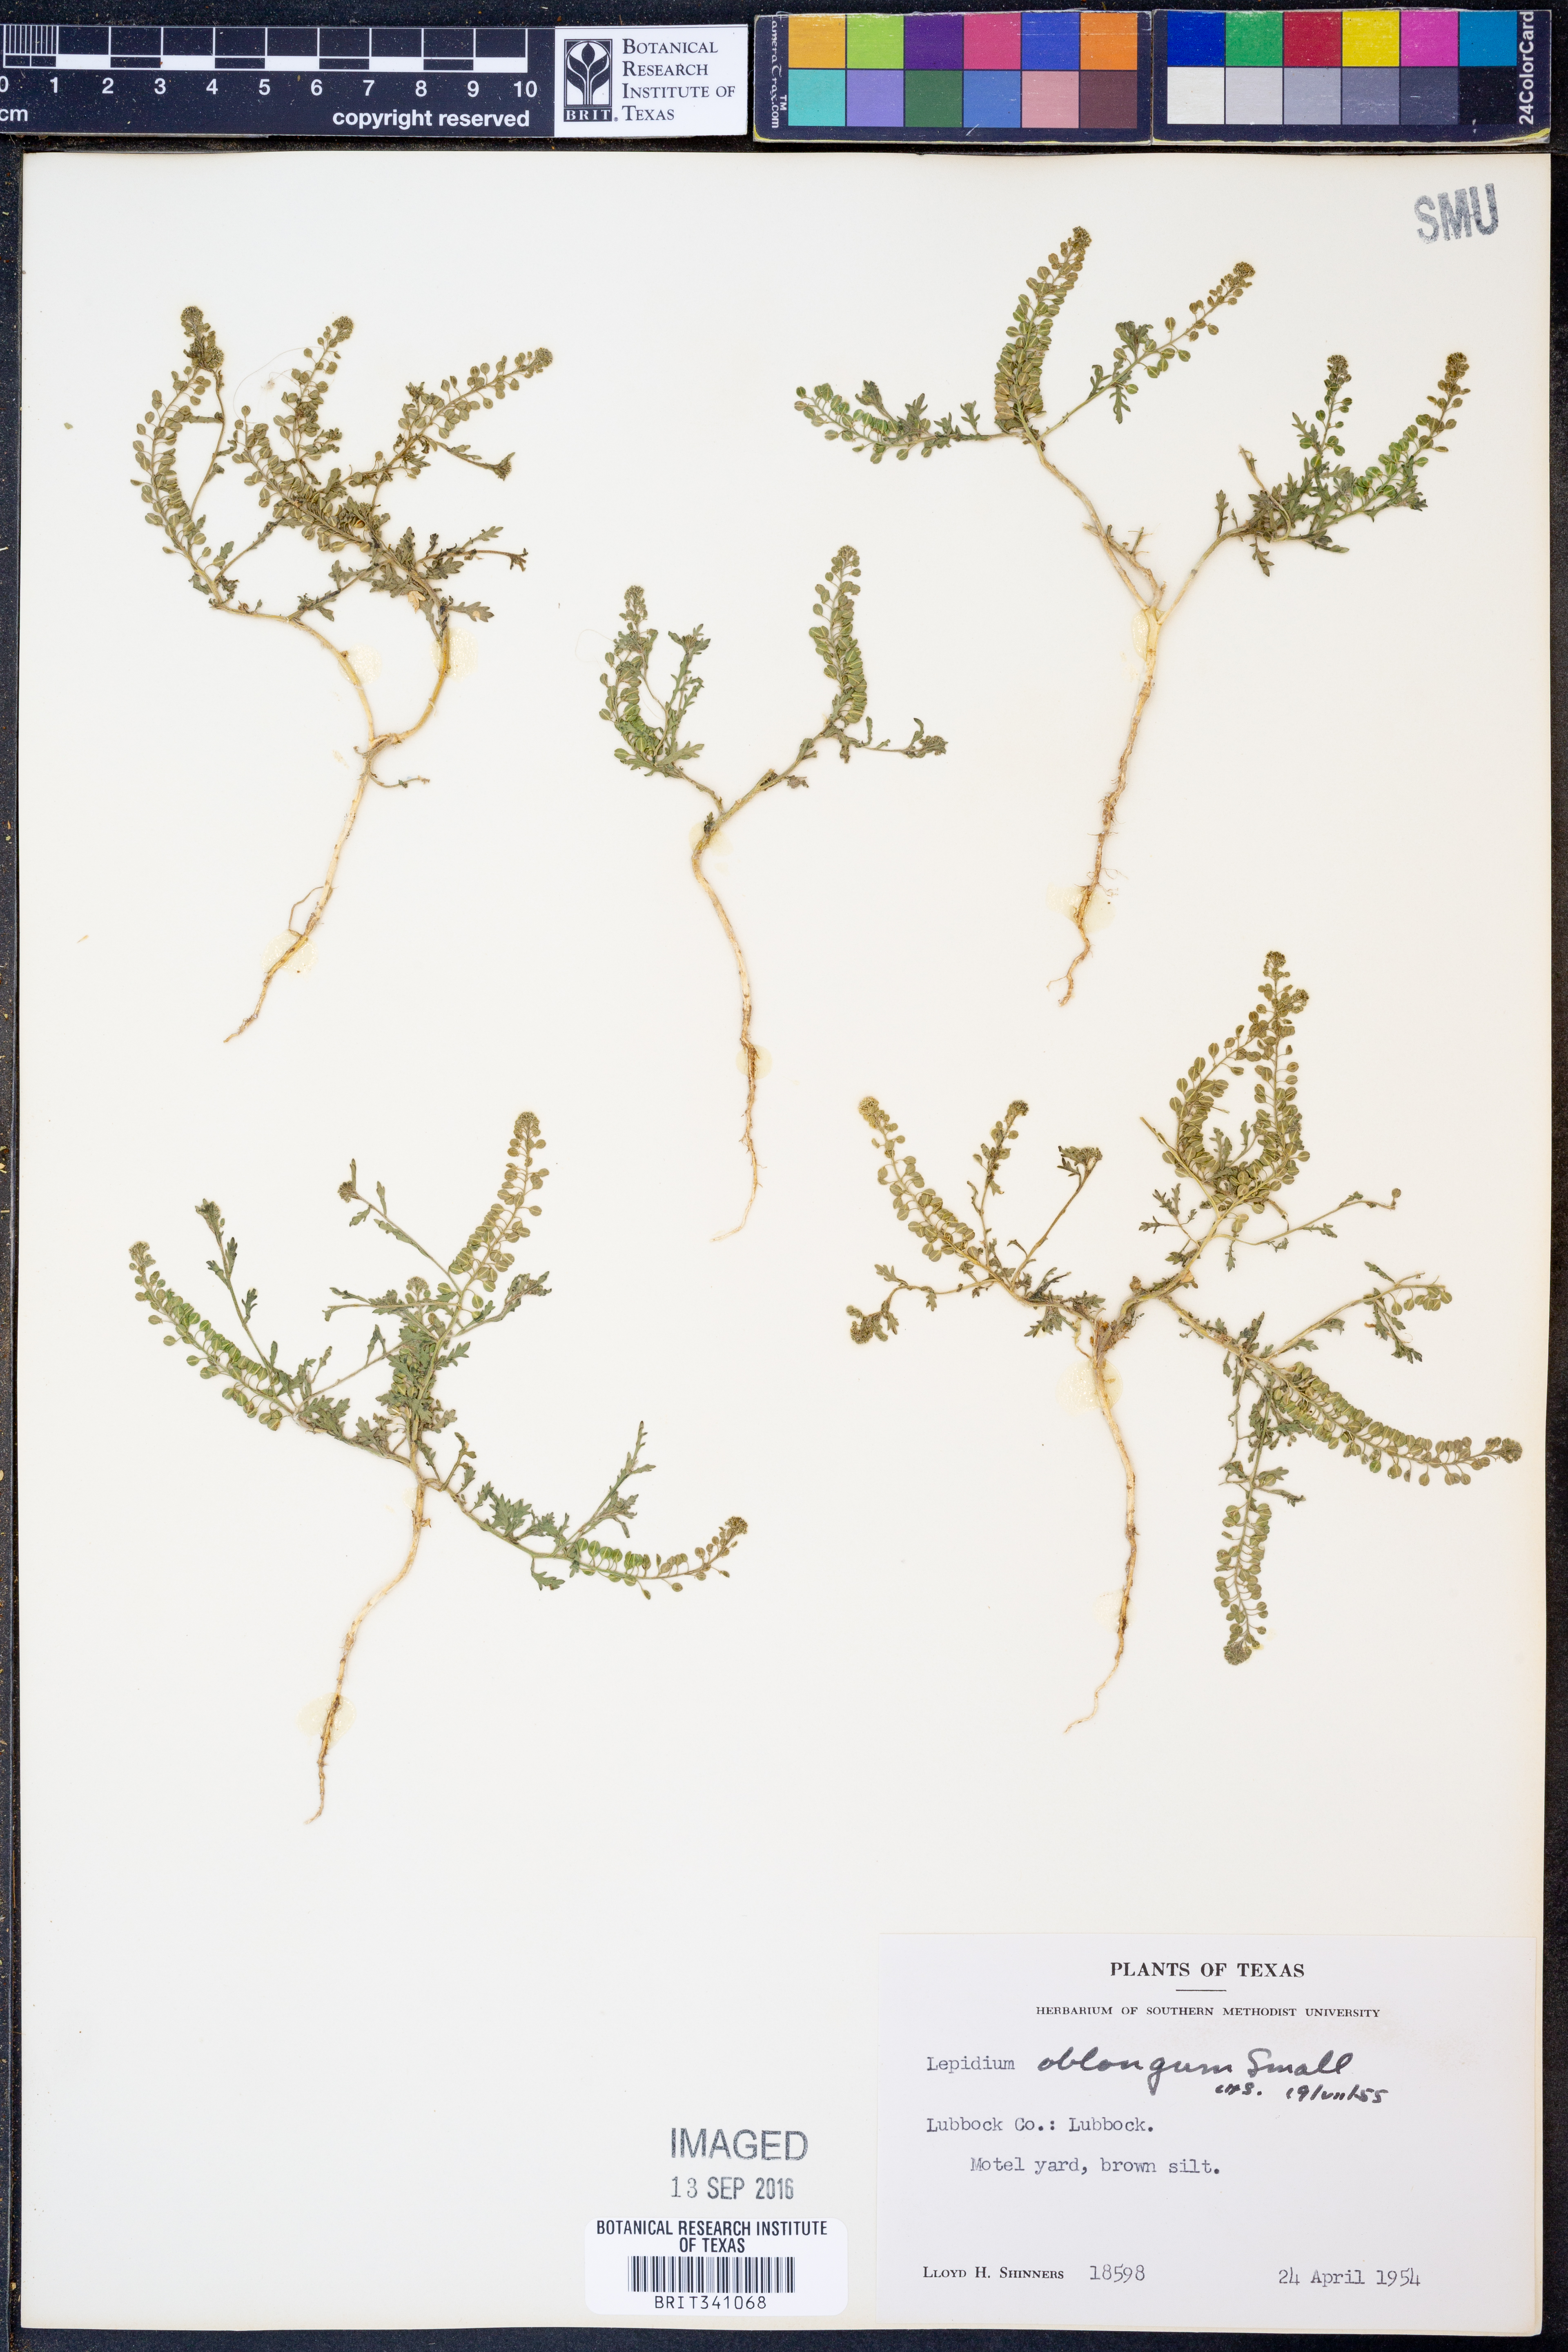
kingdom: Plantae
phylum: Tracheophyta
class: Magnoliopsida
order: Brassicales
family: Brassicaceae
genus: Lepidium
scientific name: Lepidium oblongum
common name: Veiny pepperweed
